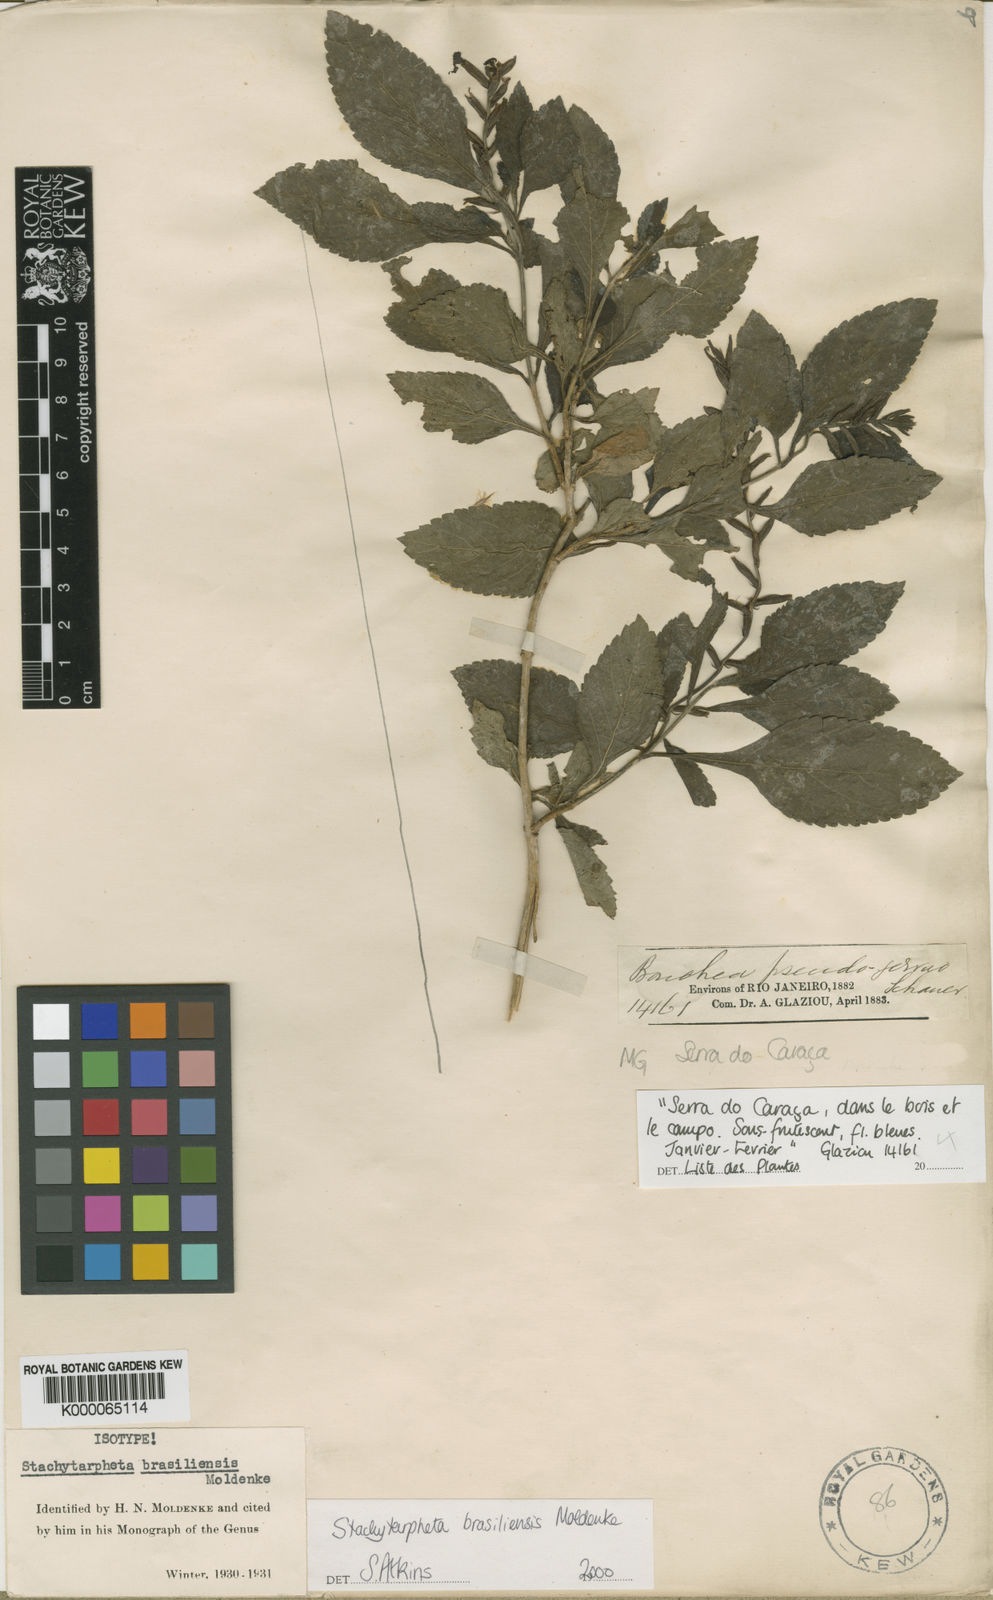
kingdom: Plantae
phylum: Tracheophyta
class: Magnoliopsida
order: Lamiales
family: Verbenaceae
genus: Stachytarpheta
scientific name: Stachytarpheta brasiliensis
